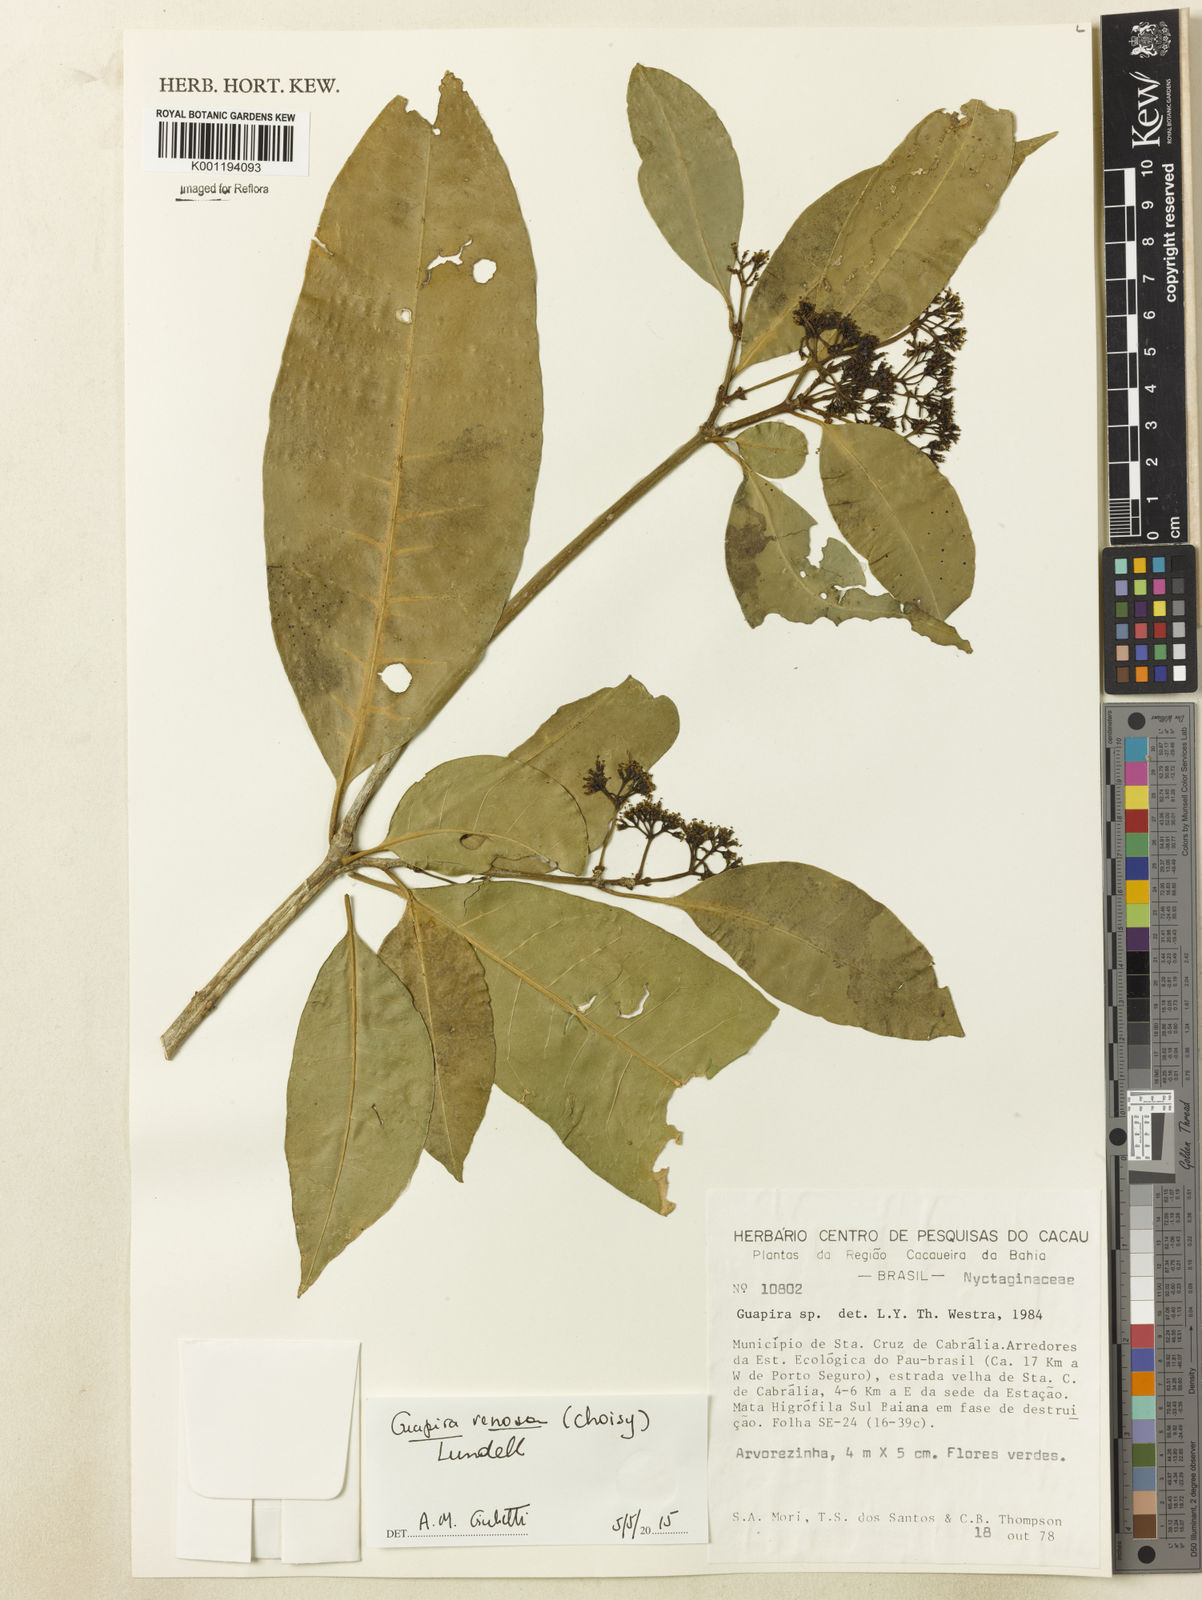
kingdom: Plantae
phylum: Tracheophyta
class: Magnoliopsida
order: Caryophyllales
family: Nyctaginaceae
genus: Guapira
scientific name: Guapira venosa
